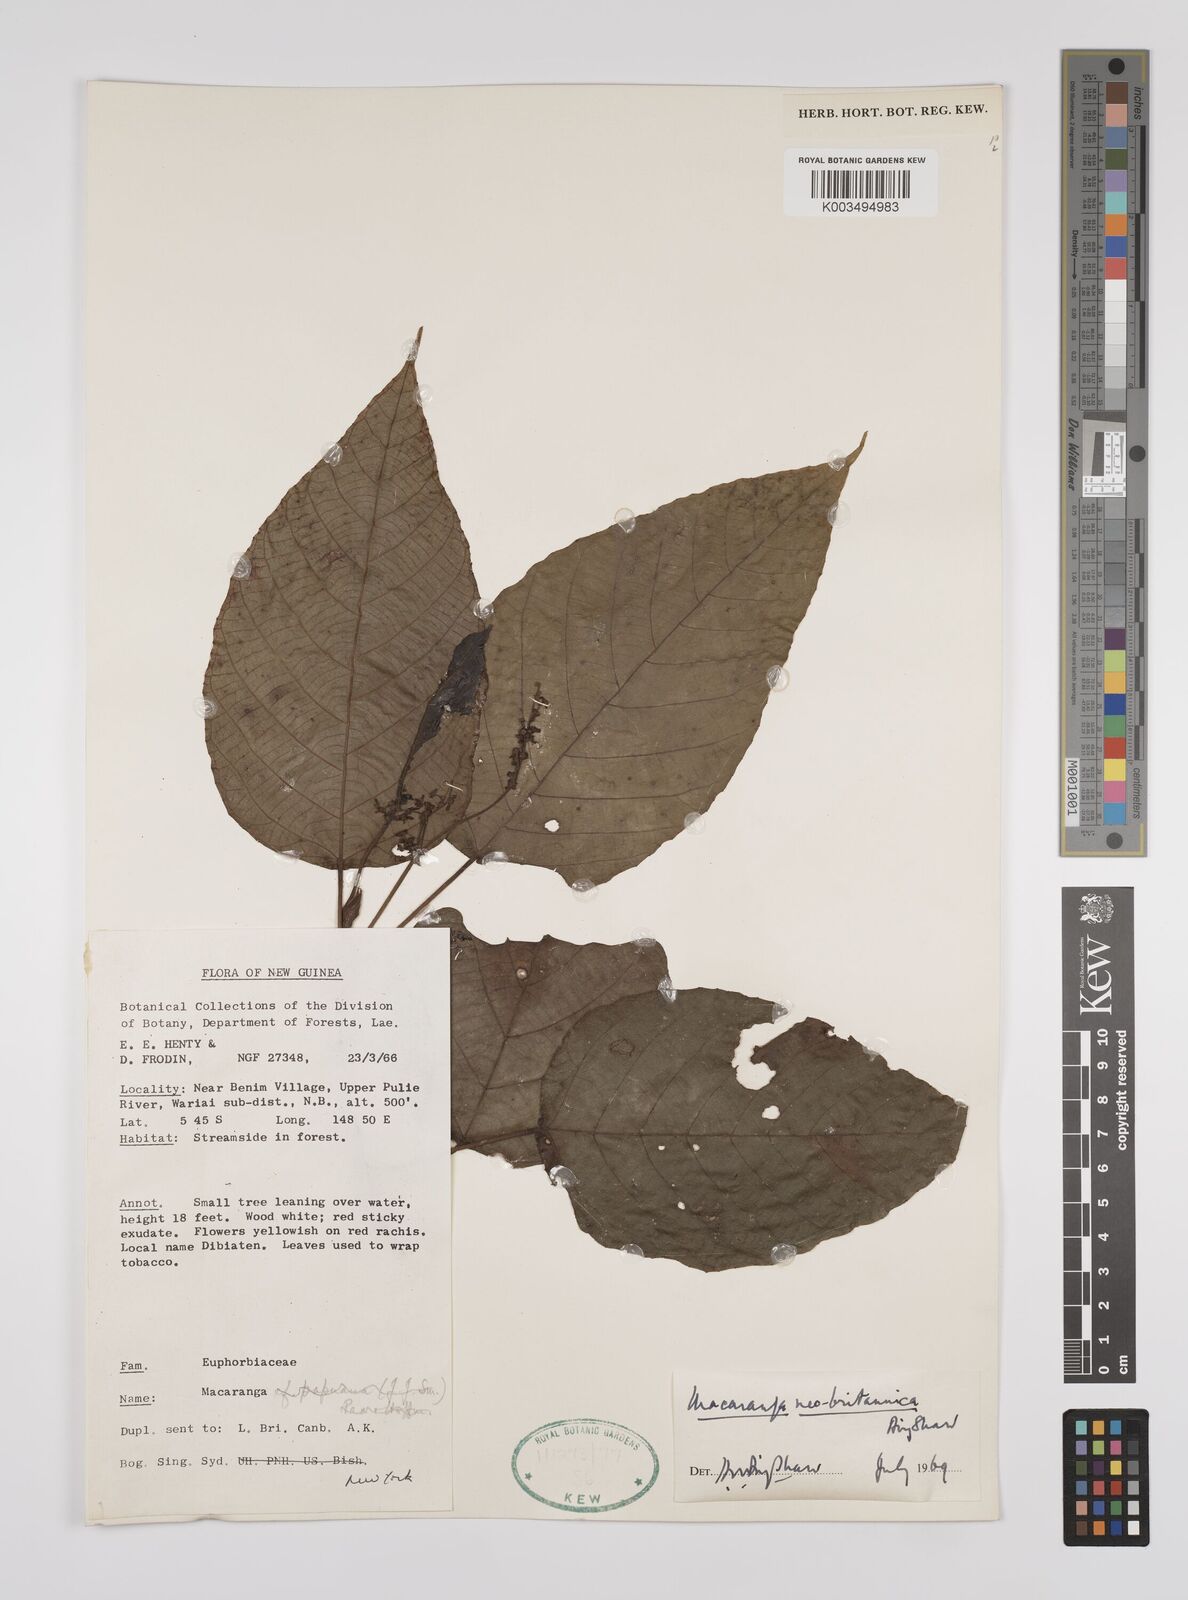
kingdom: Plantae
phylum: Tracheophyta
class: Magnoliopsida
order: Malpighiales
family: Euphorbiaceae
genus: Macaranga
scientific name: Macaranga neobritannica
